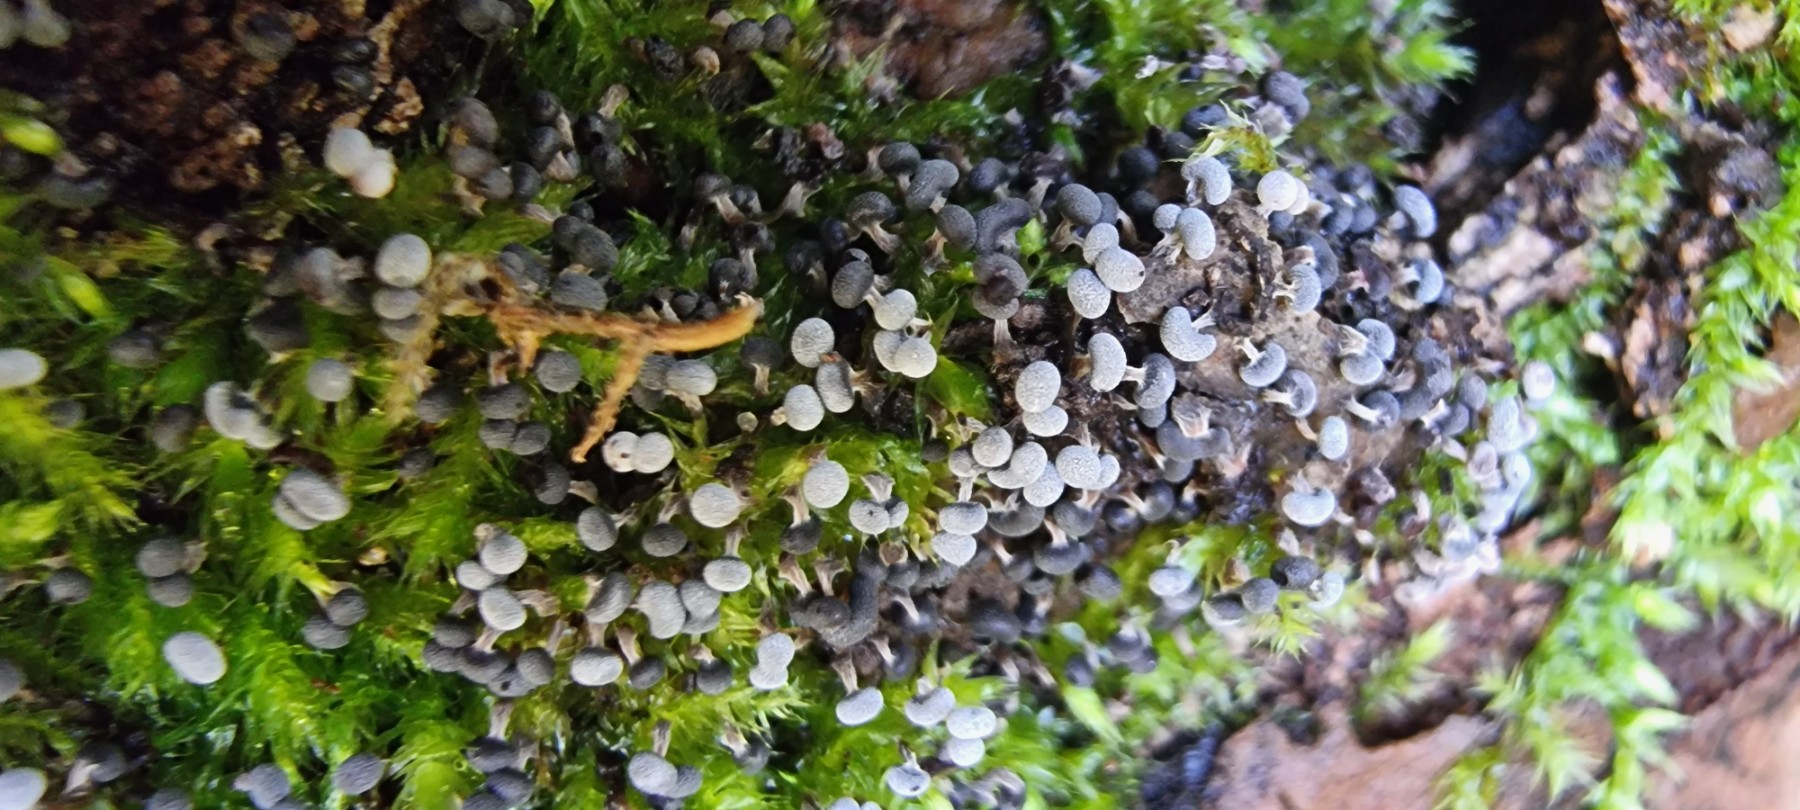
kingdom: Protozoa
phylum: Mycetozoa
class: Myxomycetes
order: Physarales
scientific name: Physarales
